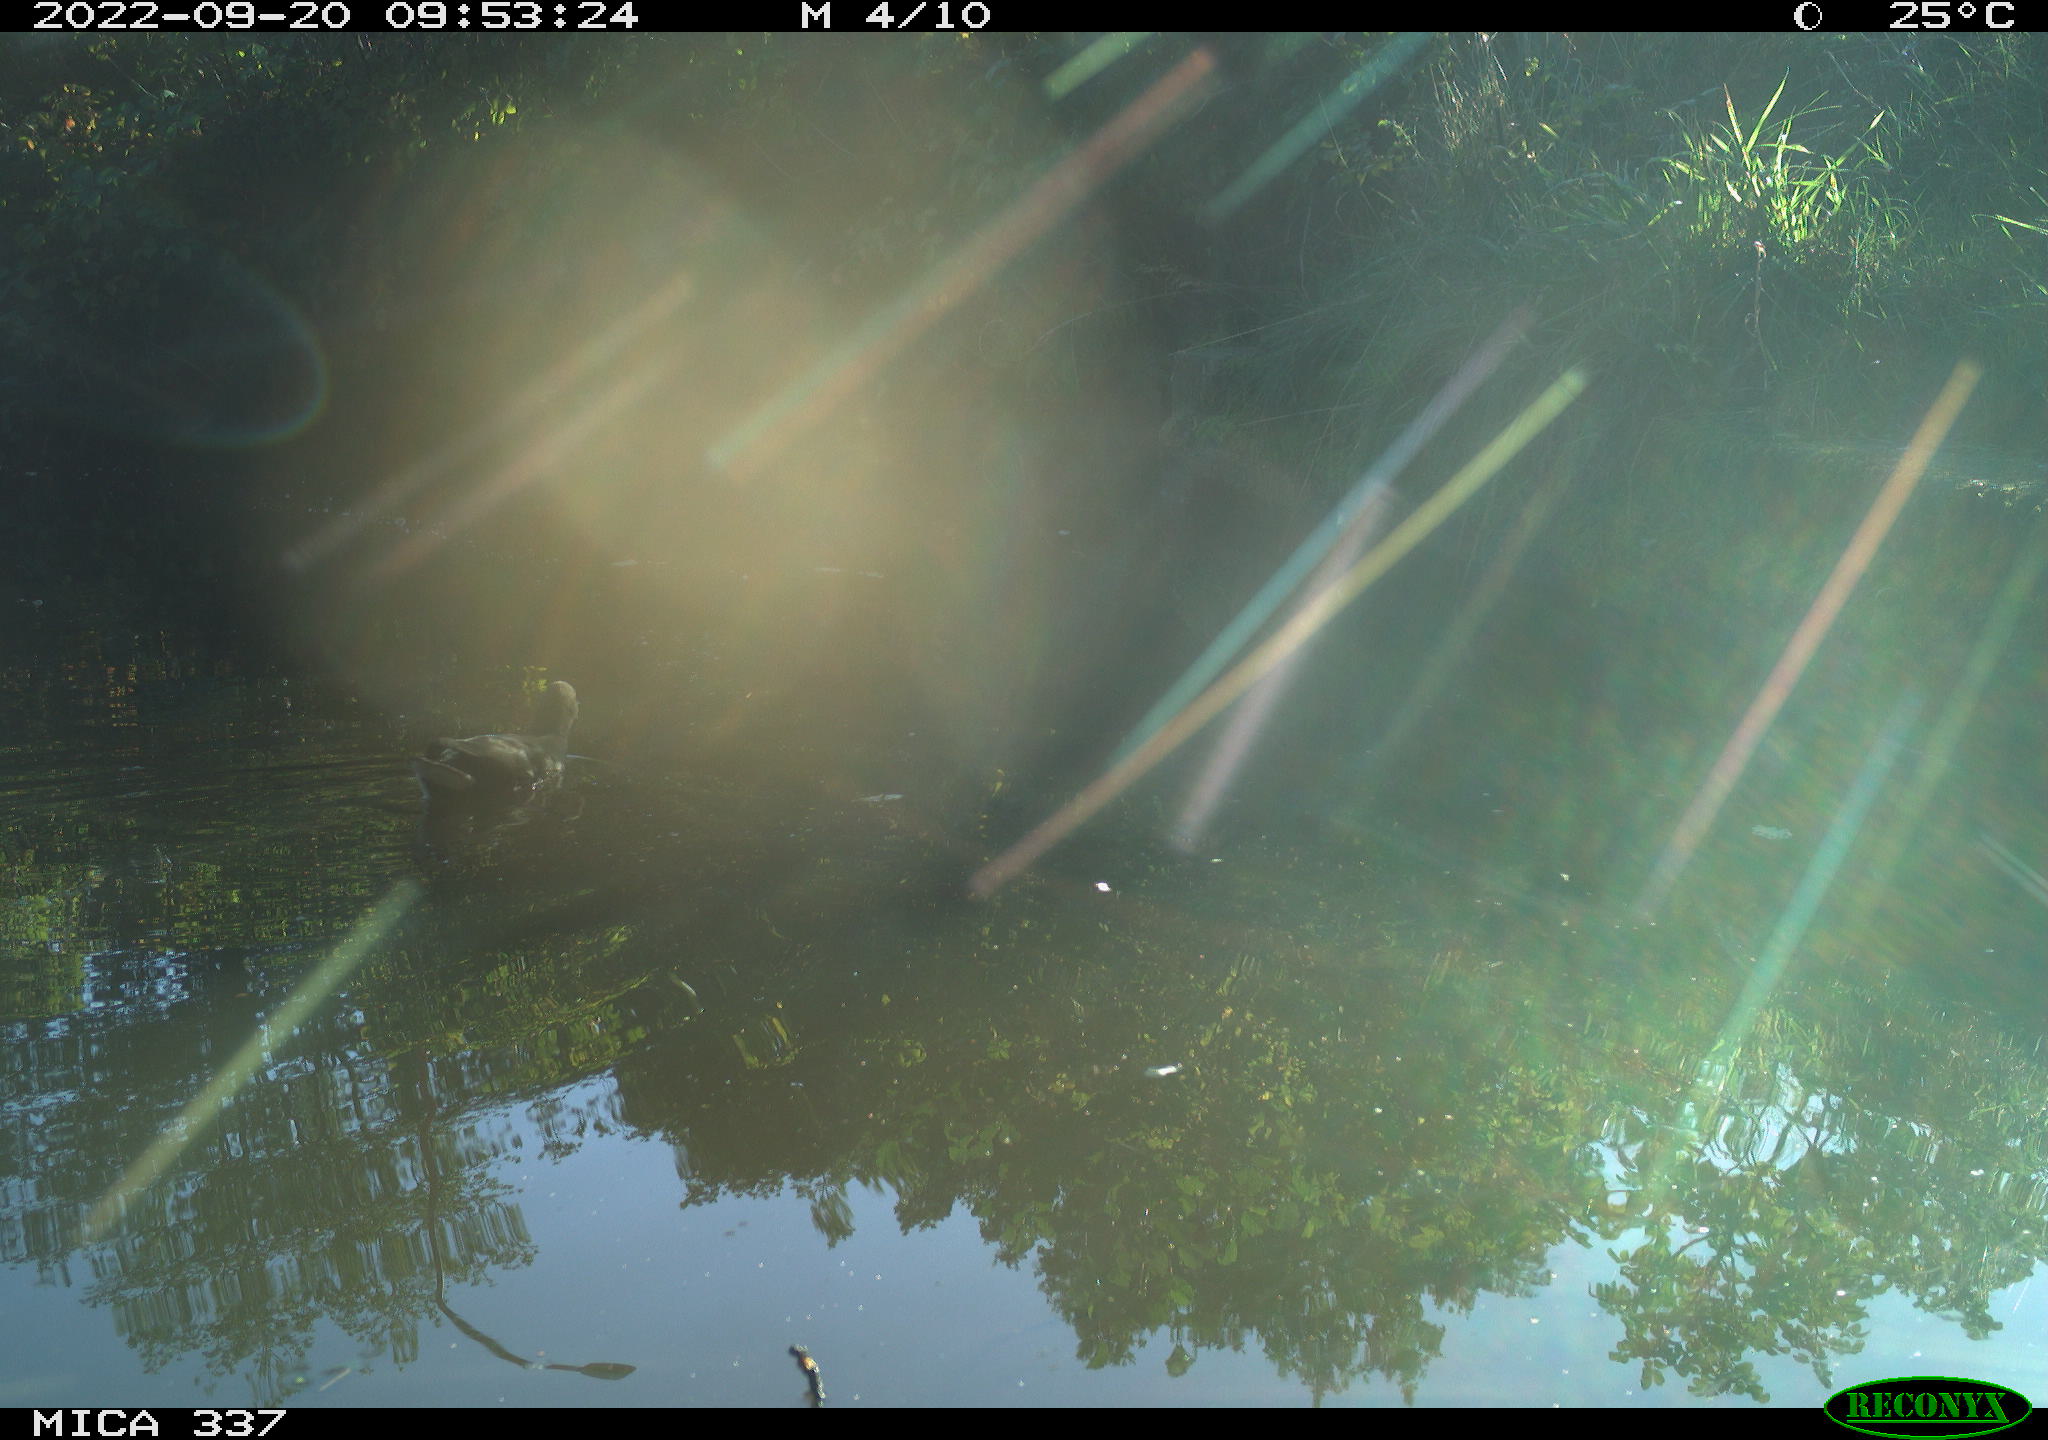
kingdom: Animalia
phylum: Chordata
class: Aves
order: Gruiformes
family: Rallidae
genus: Gallinula
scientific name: Gallinula chloropus
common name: Common moorhen
